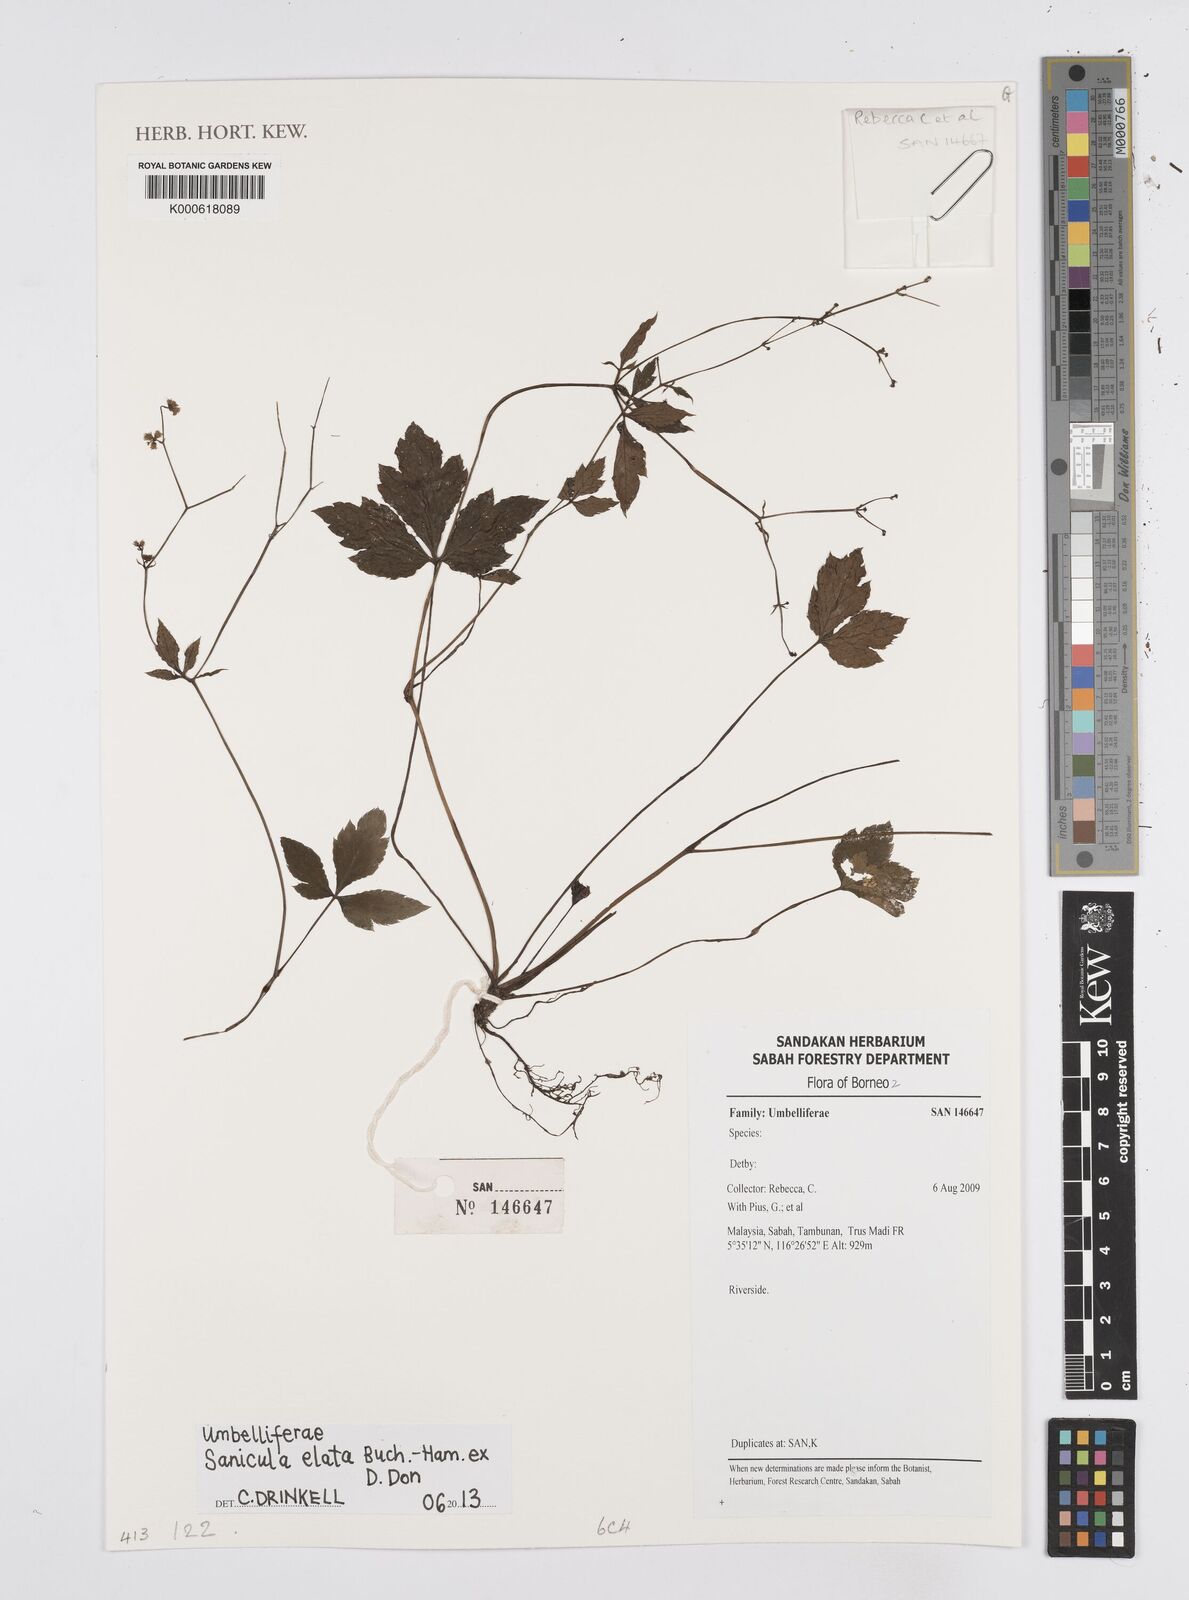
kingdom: Plantae
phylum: Tracheophyta
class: Magnoliopsida
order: Apiales
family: Apiaceae
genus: Sanicula
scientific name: Sanicula elata
